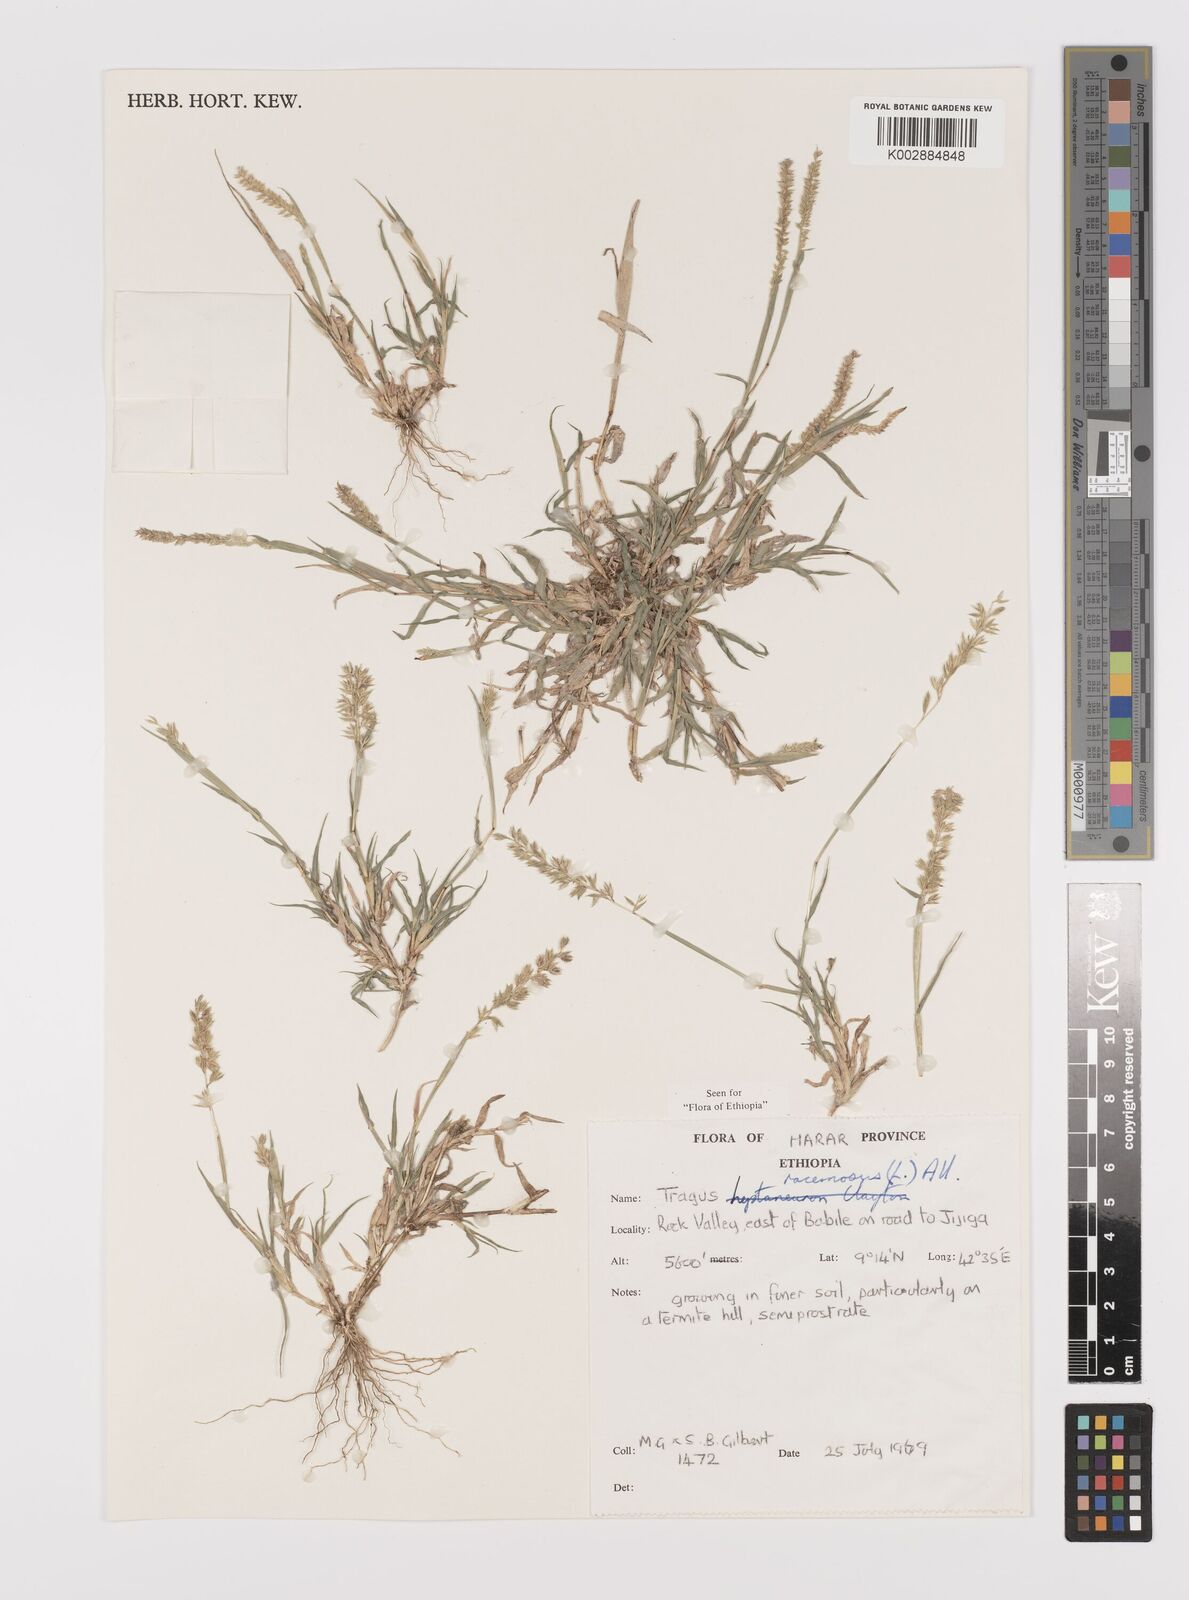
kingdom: Plantae
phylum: Tracheophyta
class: Liliopsida
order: Poales
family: Poaceae
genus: Tragus
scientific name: Tragus racemosus
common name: European bur-grass
